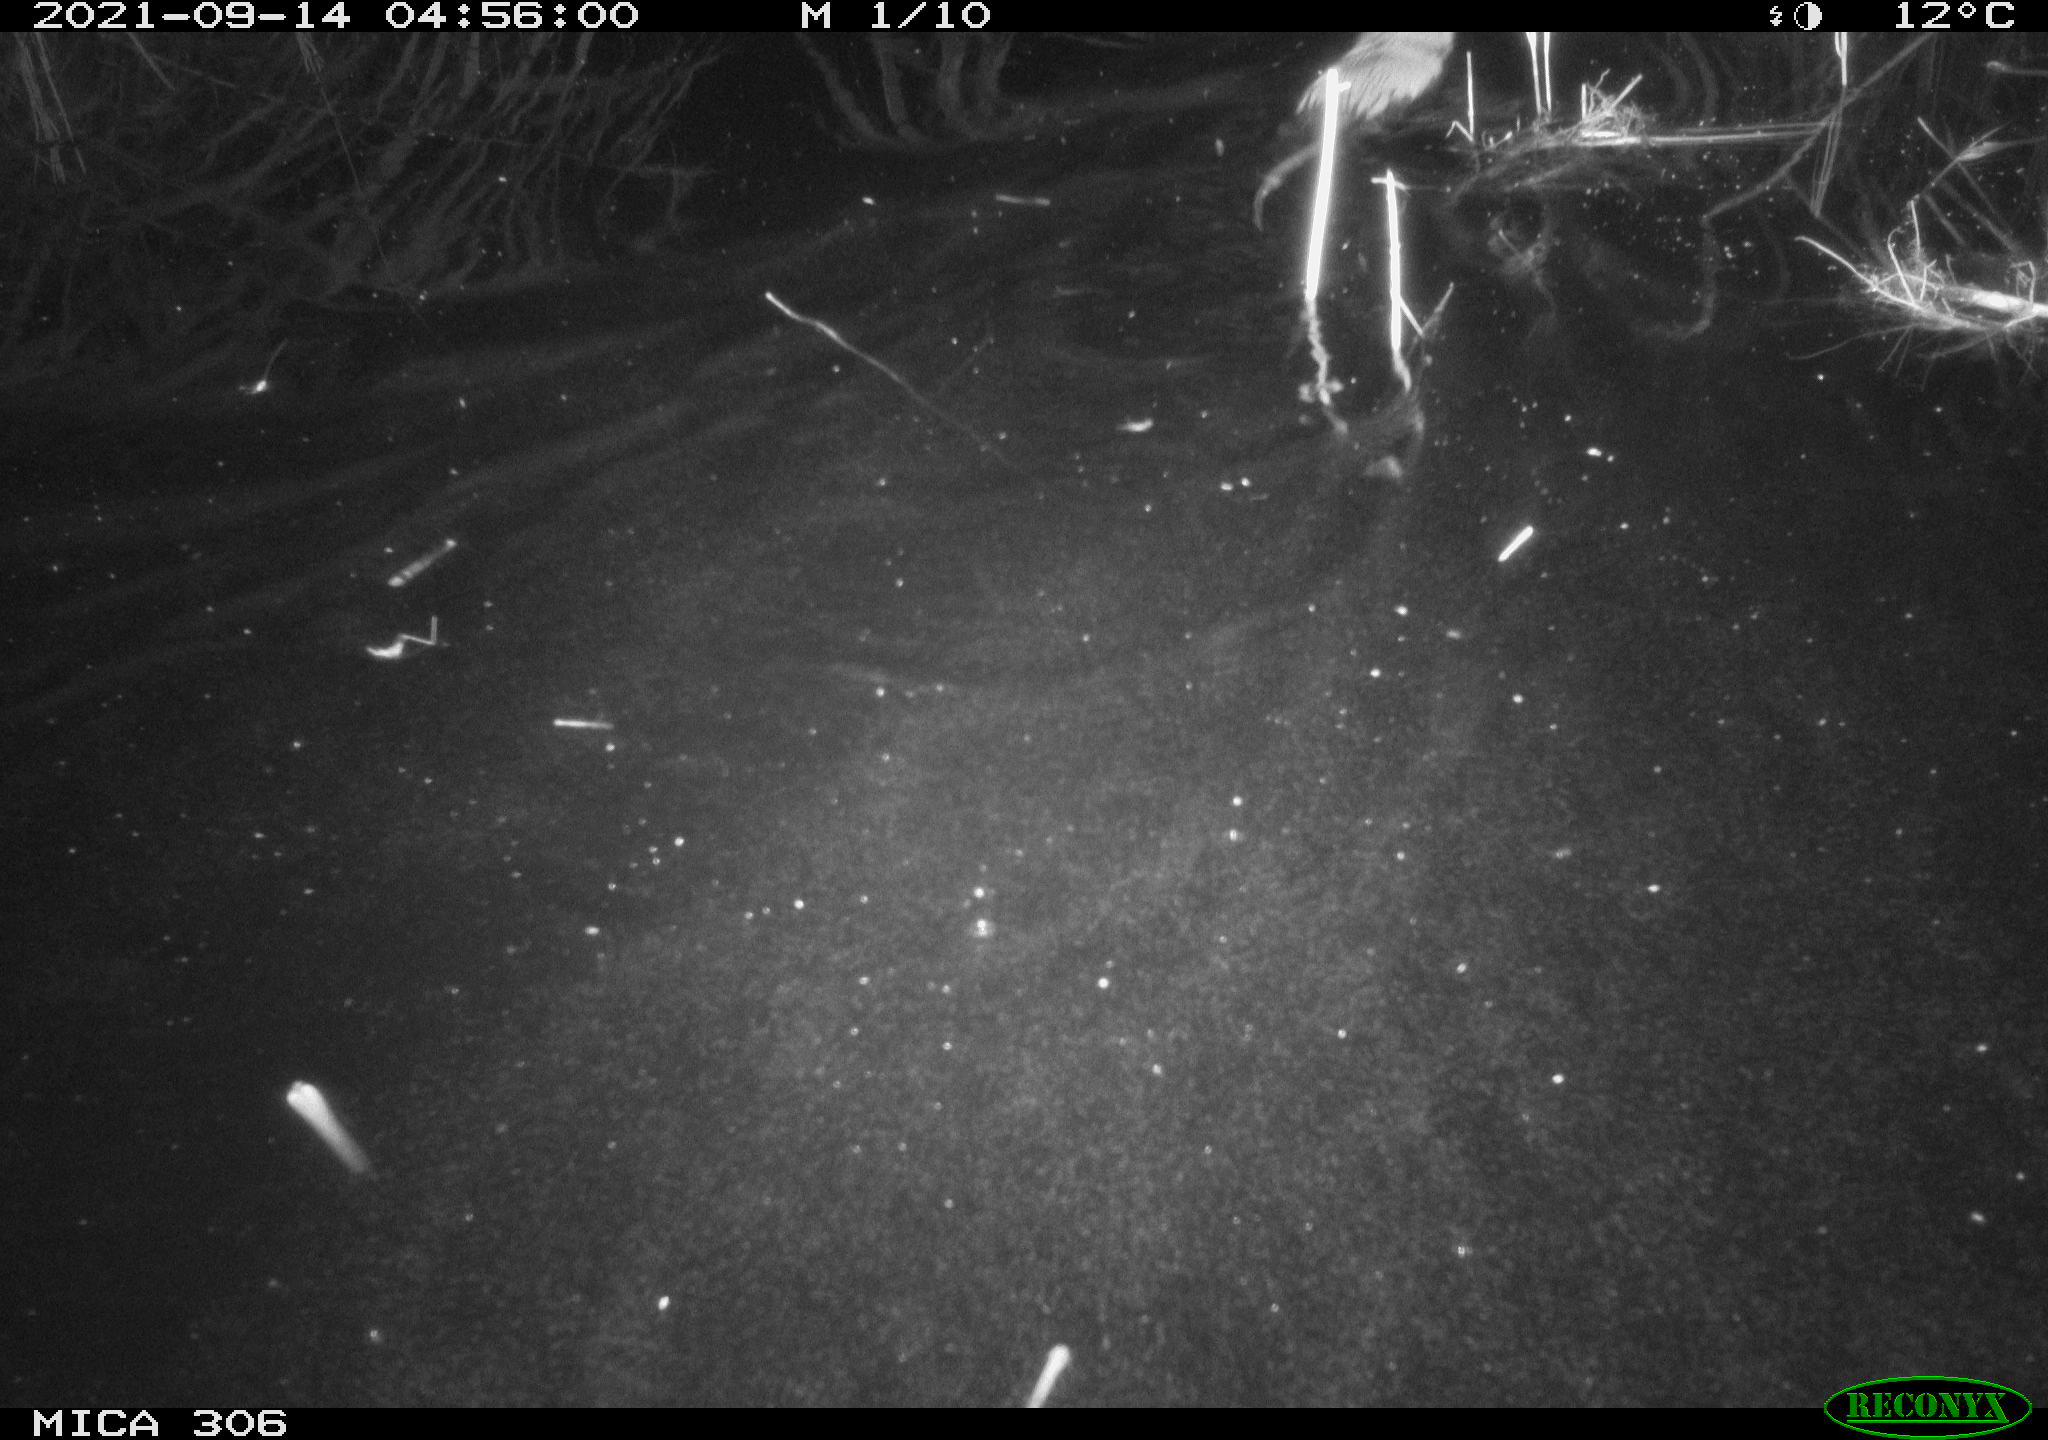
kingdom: Animalia
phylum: Chordata
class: Mammalia
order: Rodentia
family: Cricetidae
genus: Ondatra
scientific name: Ondatra zibethicus
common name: Muskrat
